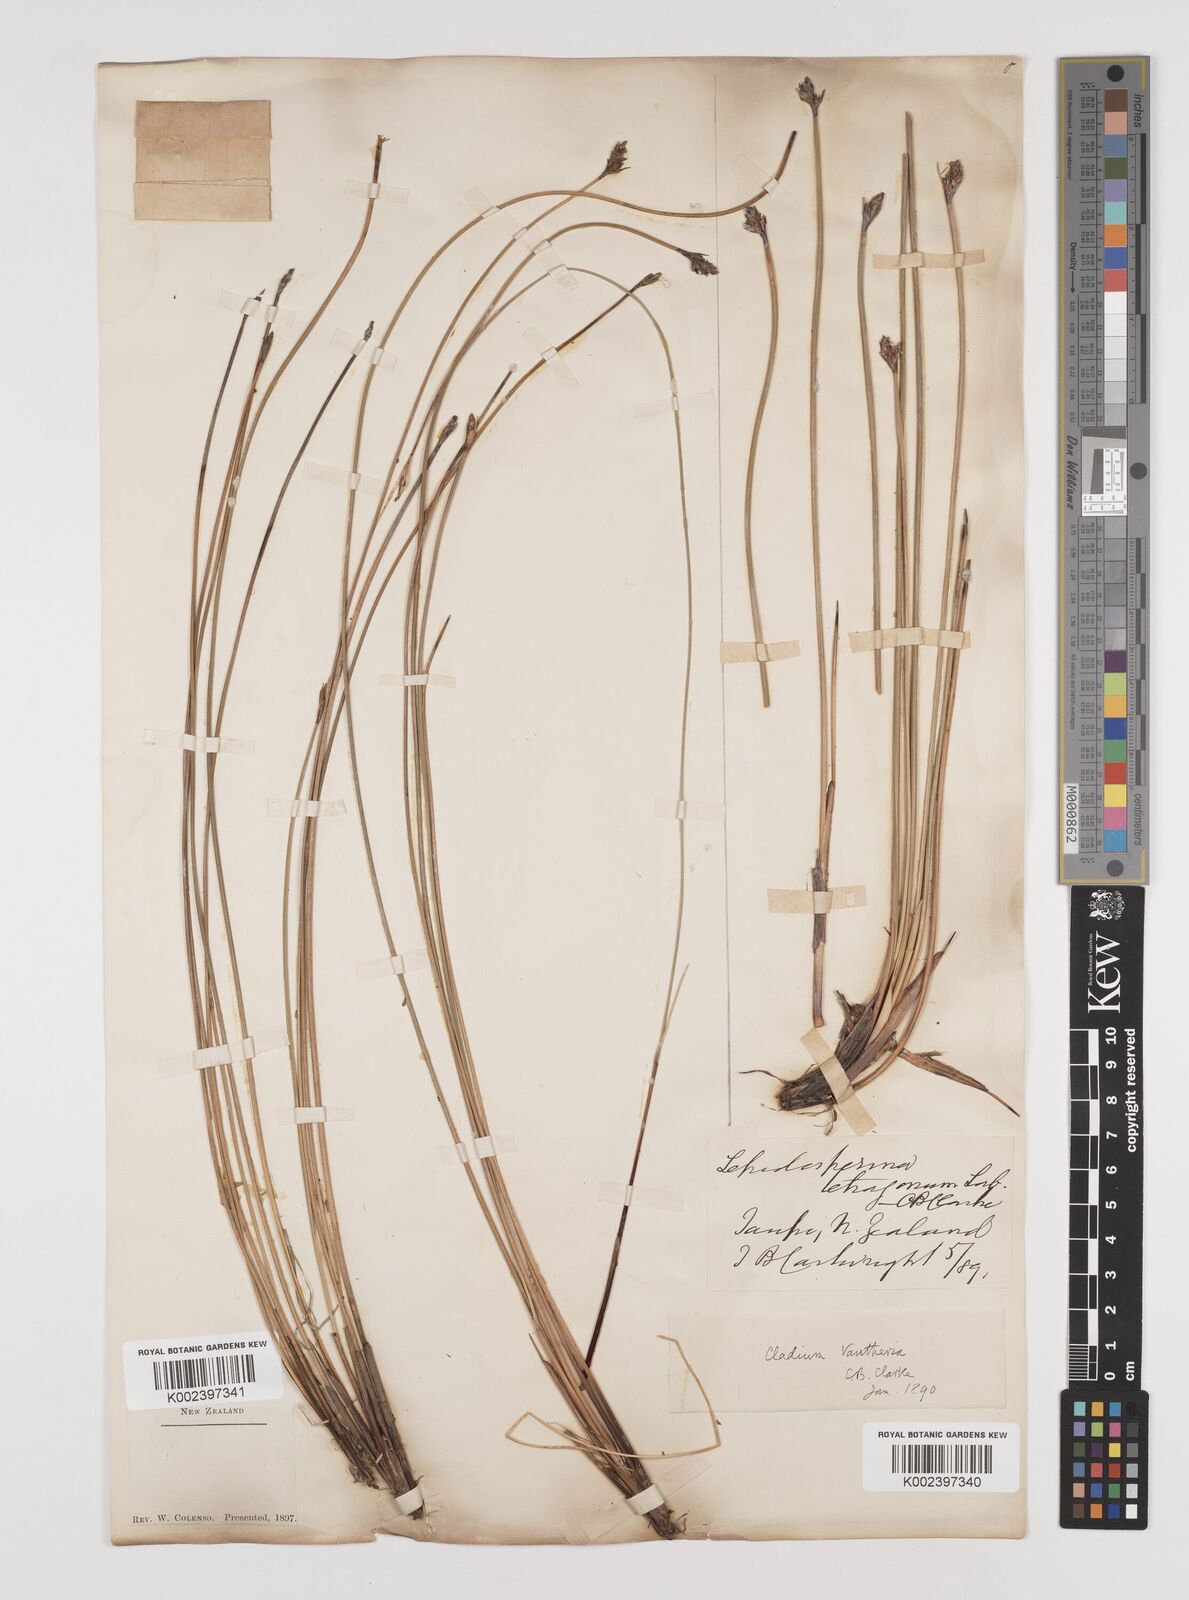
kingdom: Plantae
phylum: Tracheophyta
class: Liliopsida
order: Poales
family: Cyperaceae
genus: Lepidosperma
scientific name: Lepidosperma australe
